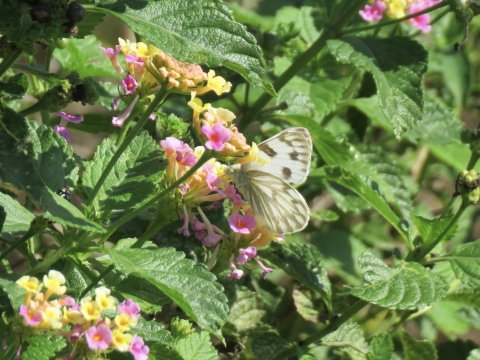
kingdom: Animalia
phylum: Arthropoda
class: Insecta
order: Lepidoptera
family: Pieridae
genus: Pontia
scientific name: Pontia protodice
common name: Checkered White
